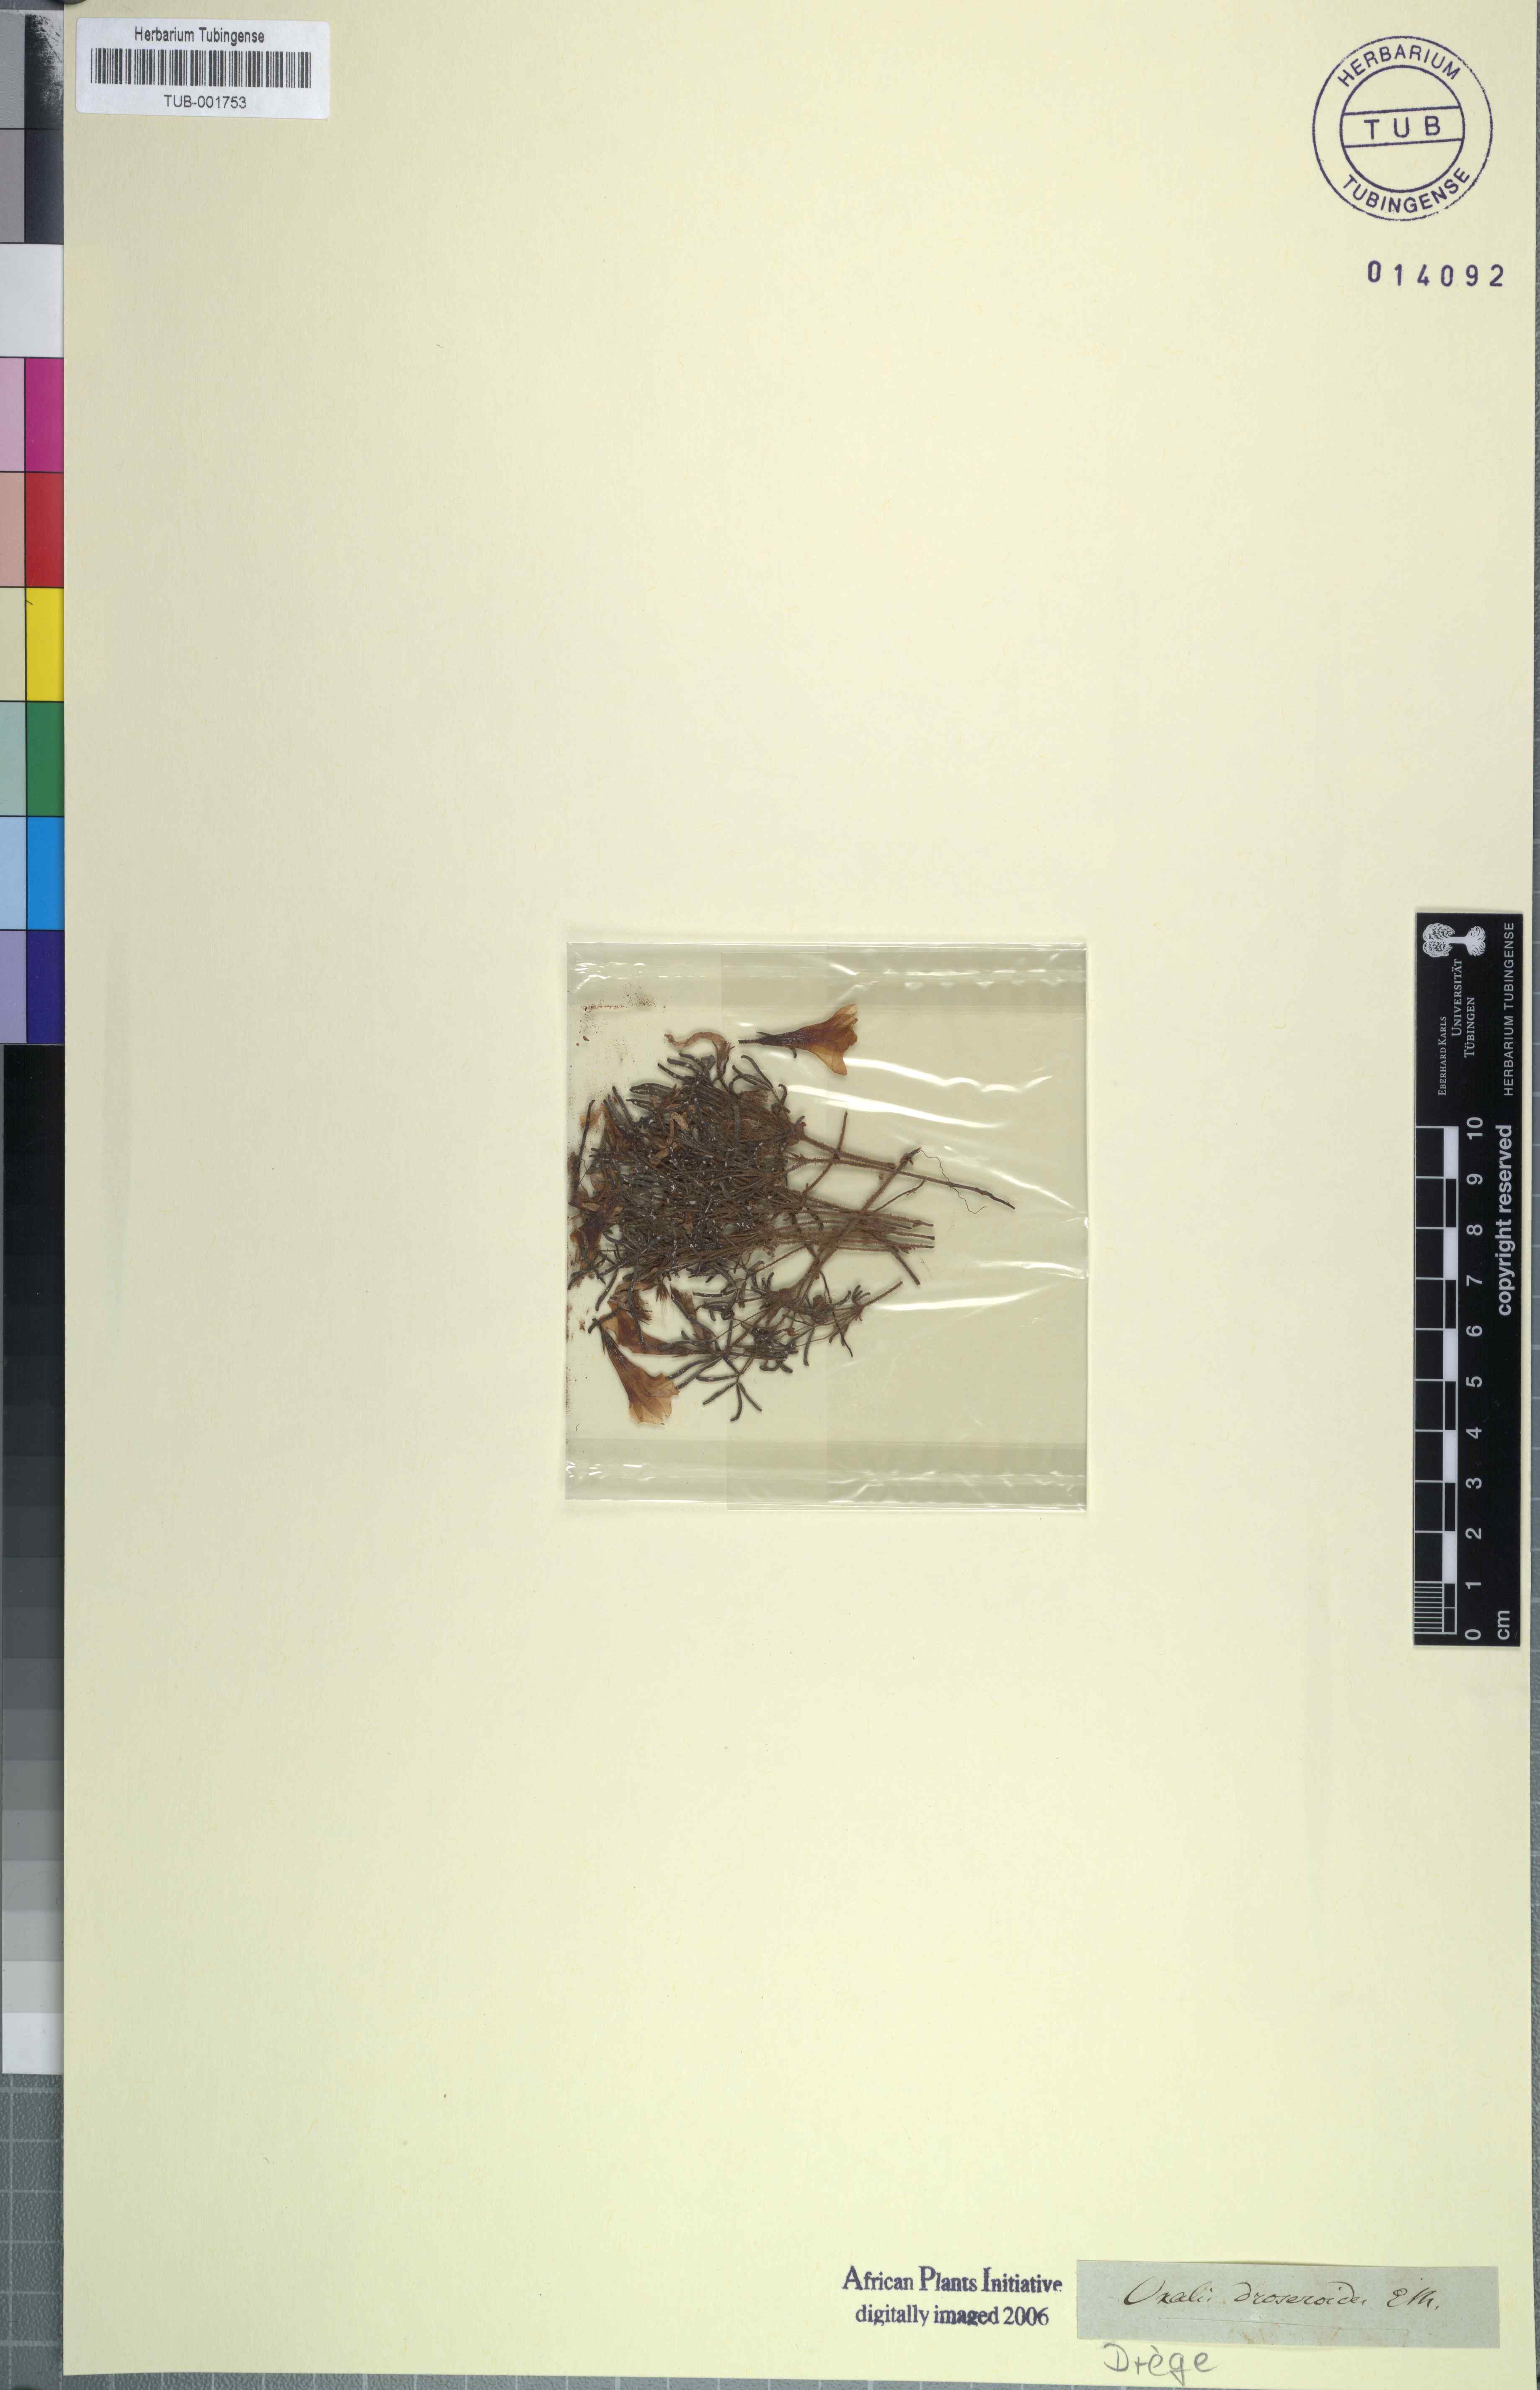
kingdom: Plantae
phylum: Tracheophyta
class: Magnoliopsida
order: Oxalidales
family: Oxalidaceae
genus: Oxalis
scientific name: Oxalis droseroides
